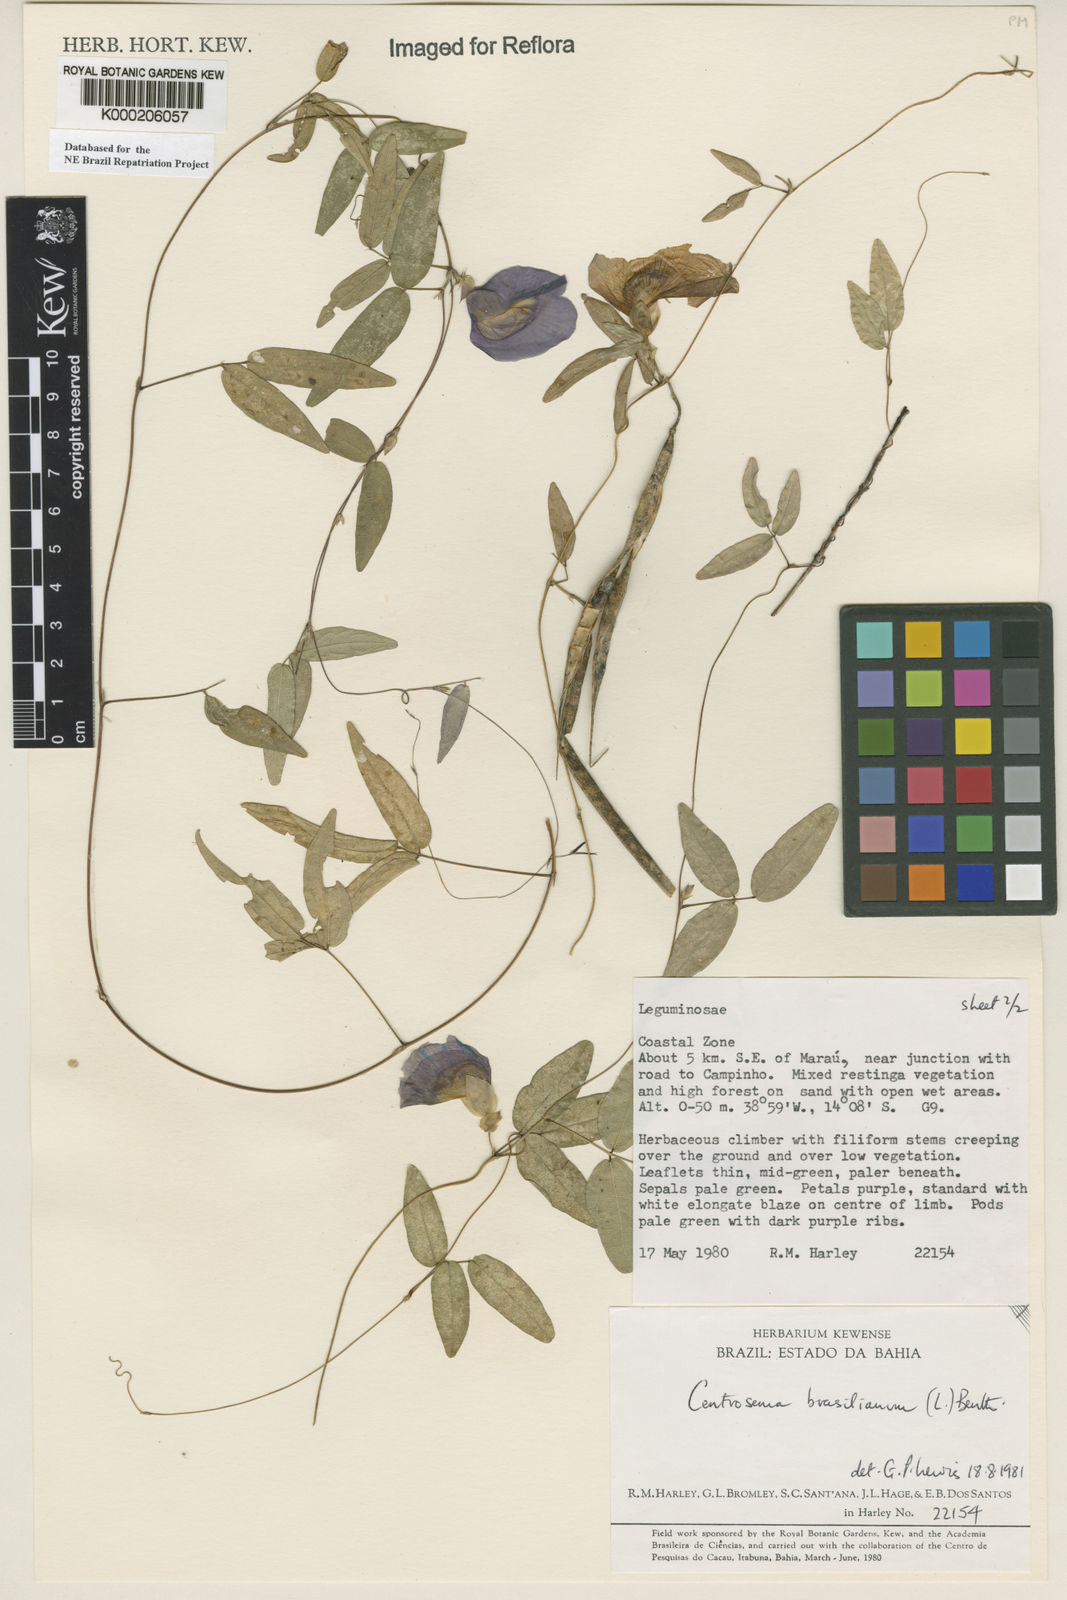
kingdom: Plantae
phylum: Tracheophyta
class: Magnoliopsida
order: Fabales
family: Fabaceae
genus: Centrosema
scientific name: Centrosema brasilianum
